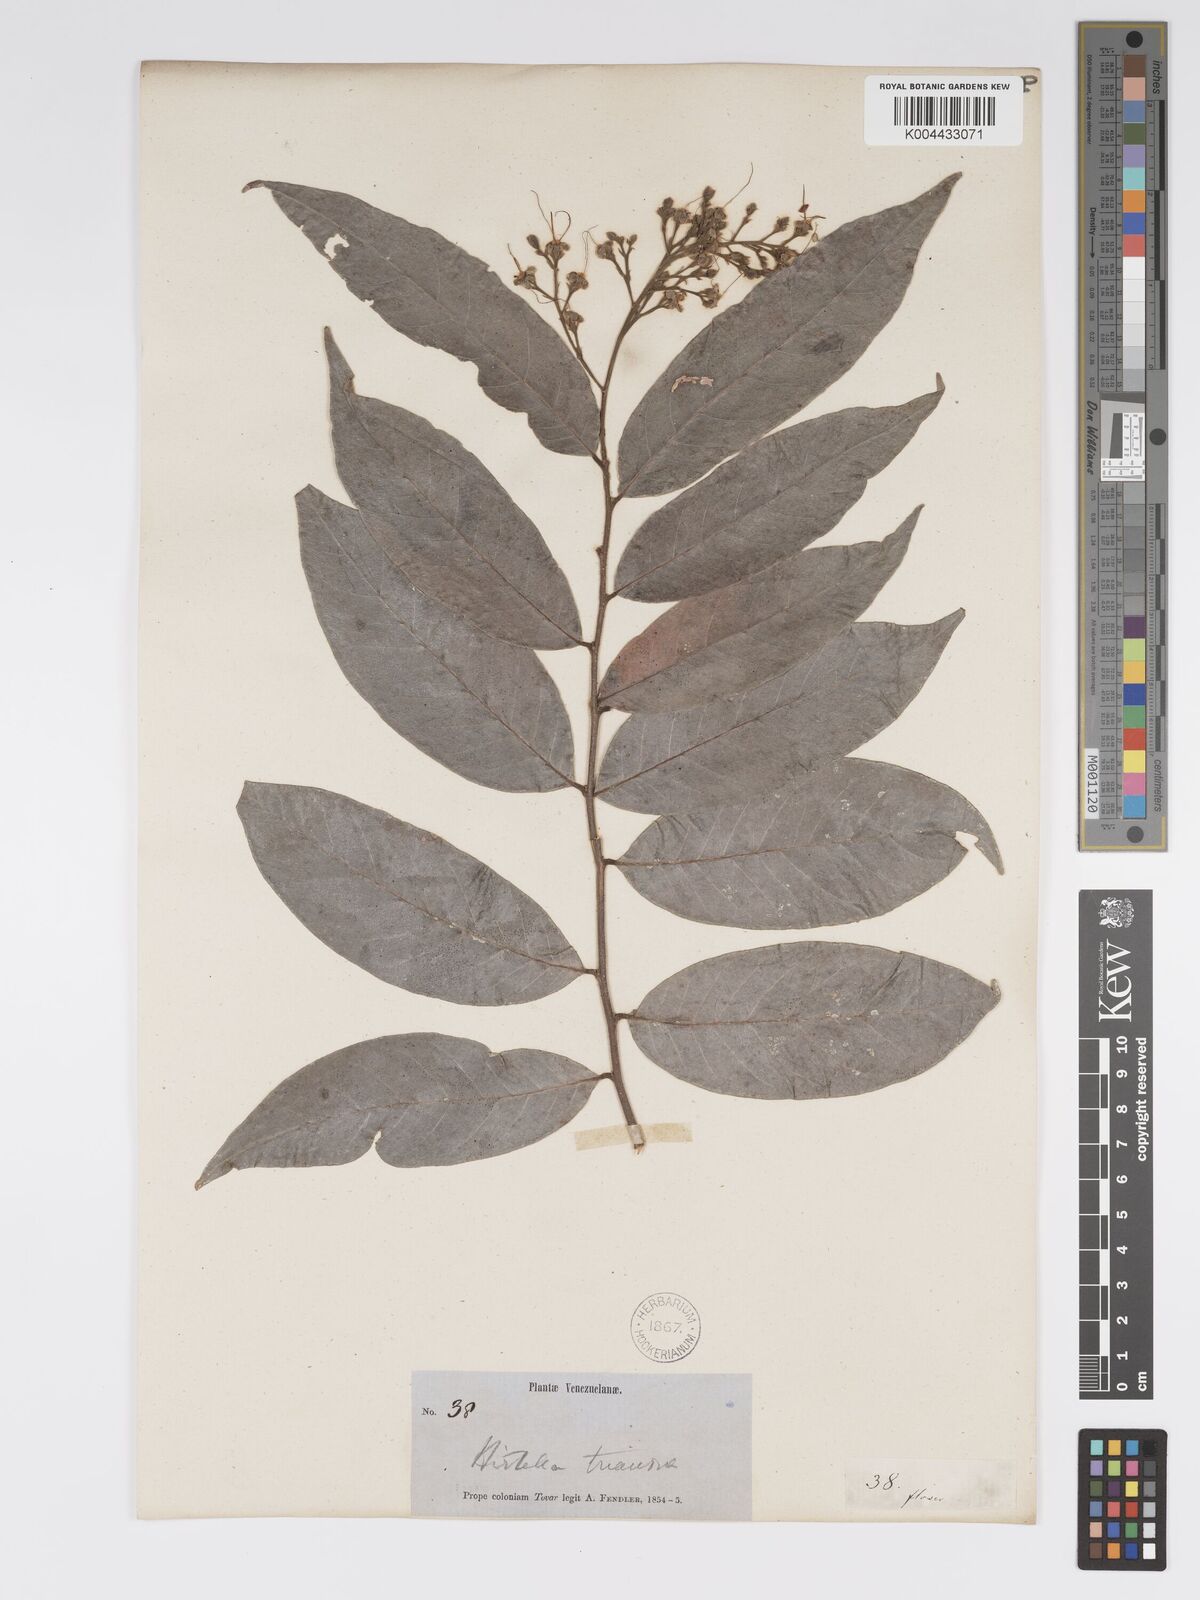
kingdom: Plantae
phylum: Tracheophyta
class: Magnoliopsida
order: Malpighiales
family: Chrysobalanaceae
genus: Hirtella
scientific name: Hirtella triandra
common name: Hairy plum
